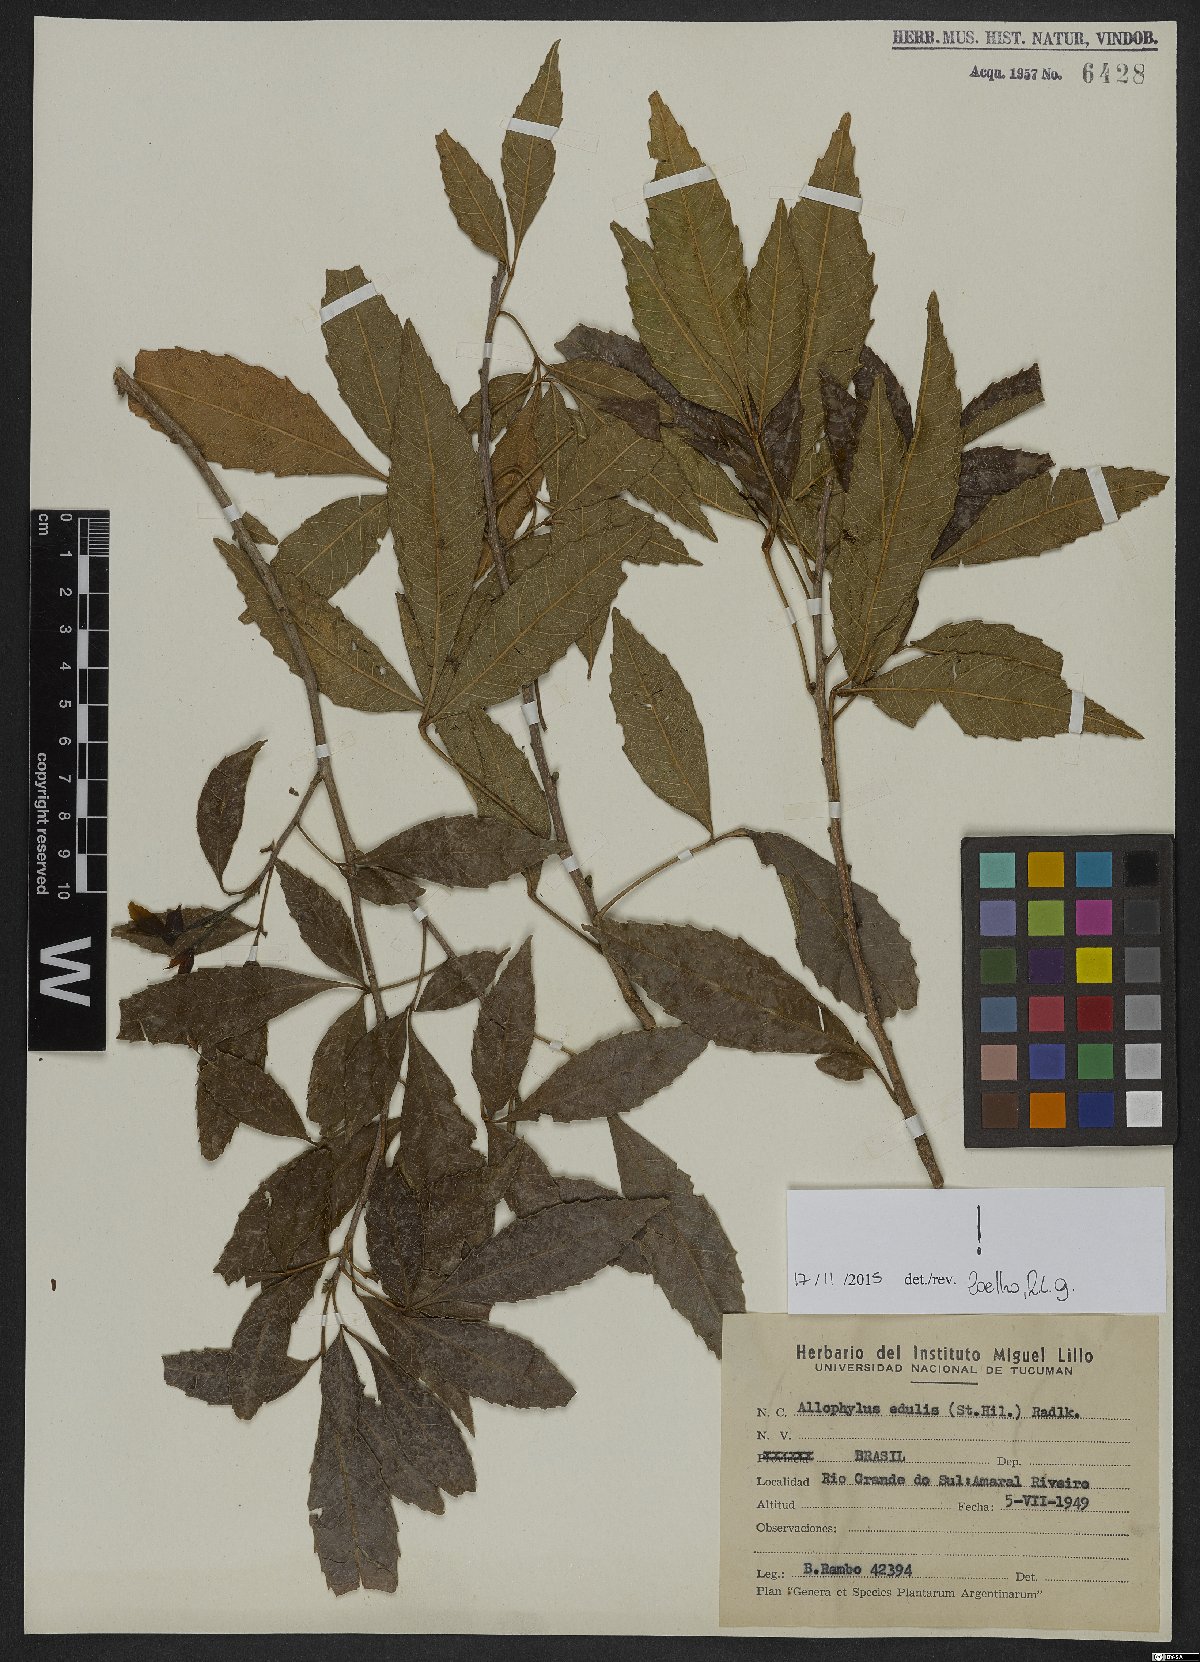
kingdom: Plantae
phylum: Tracheophyta
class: Magnoliopsida
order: Sapindales
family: Sapindaceae
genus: Allophylus
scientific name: Allophylus edulis
